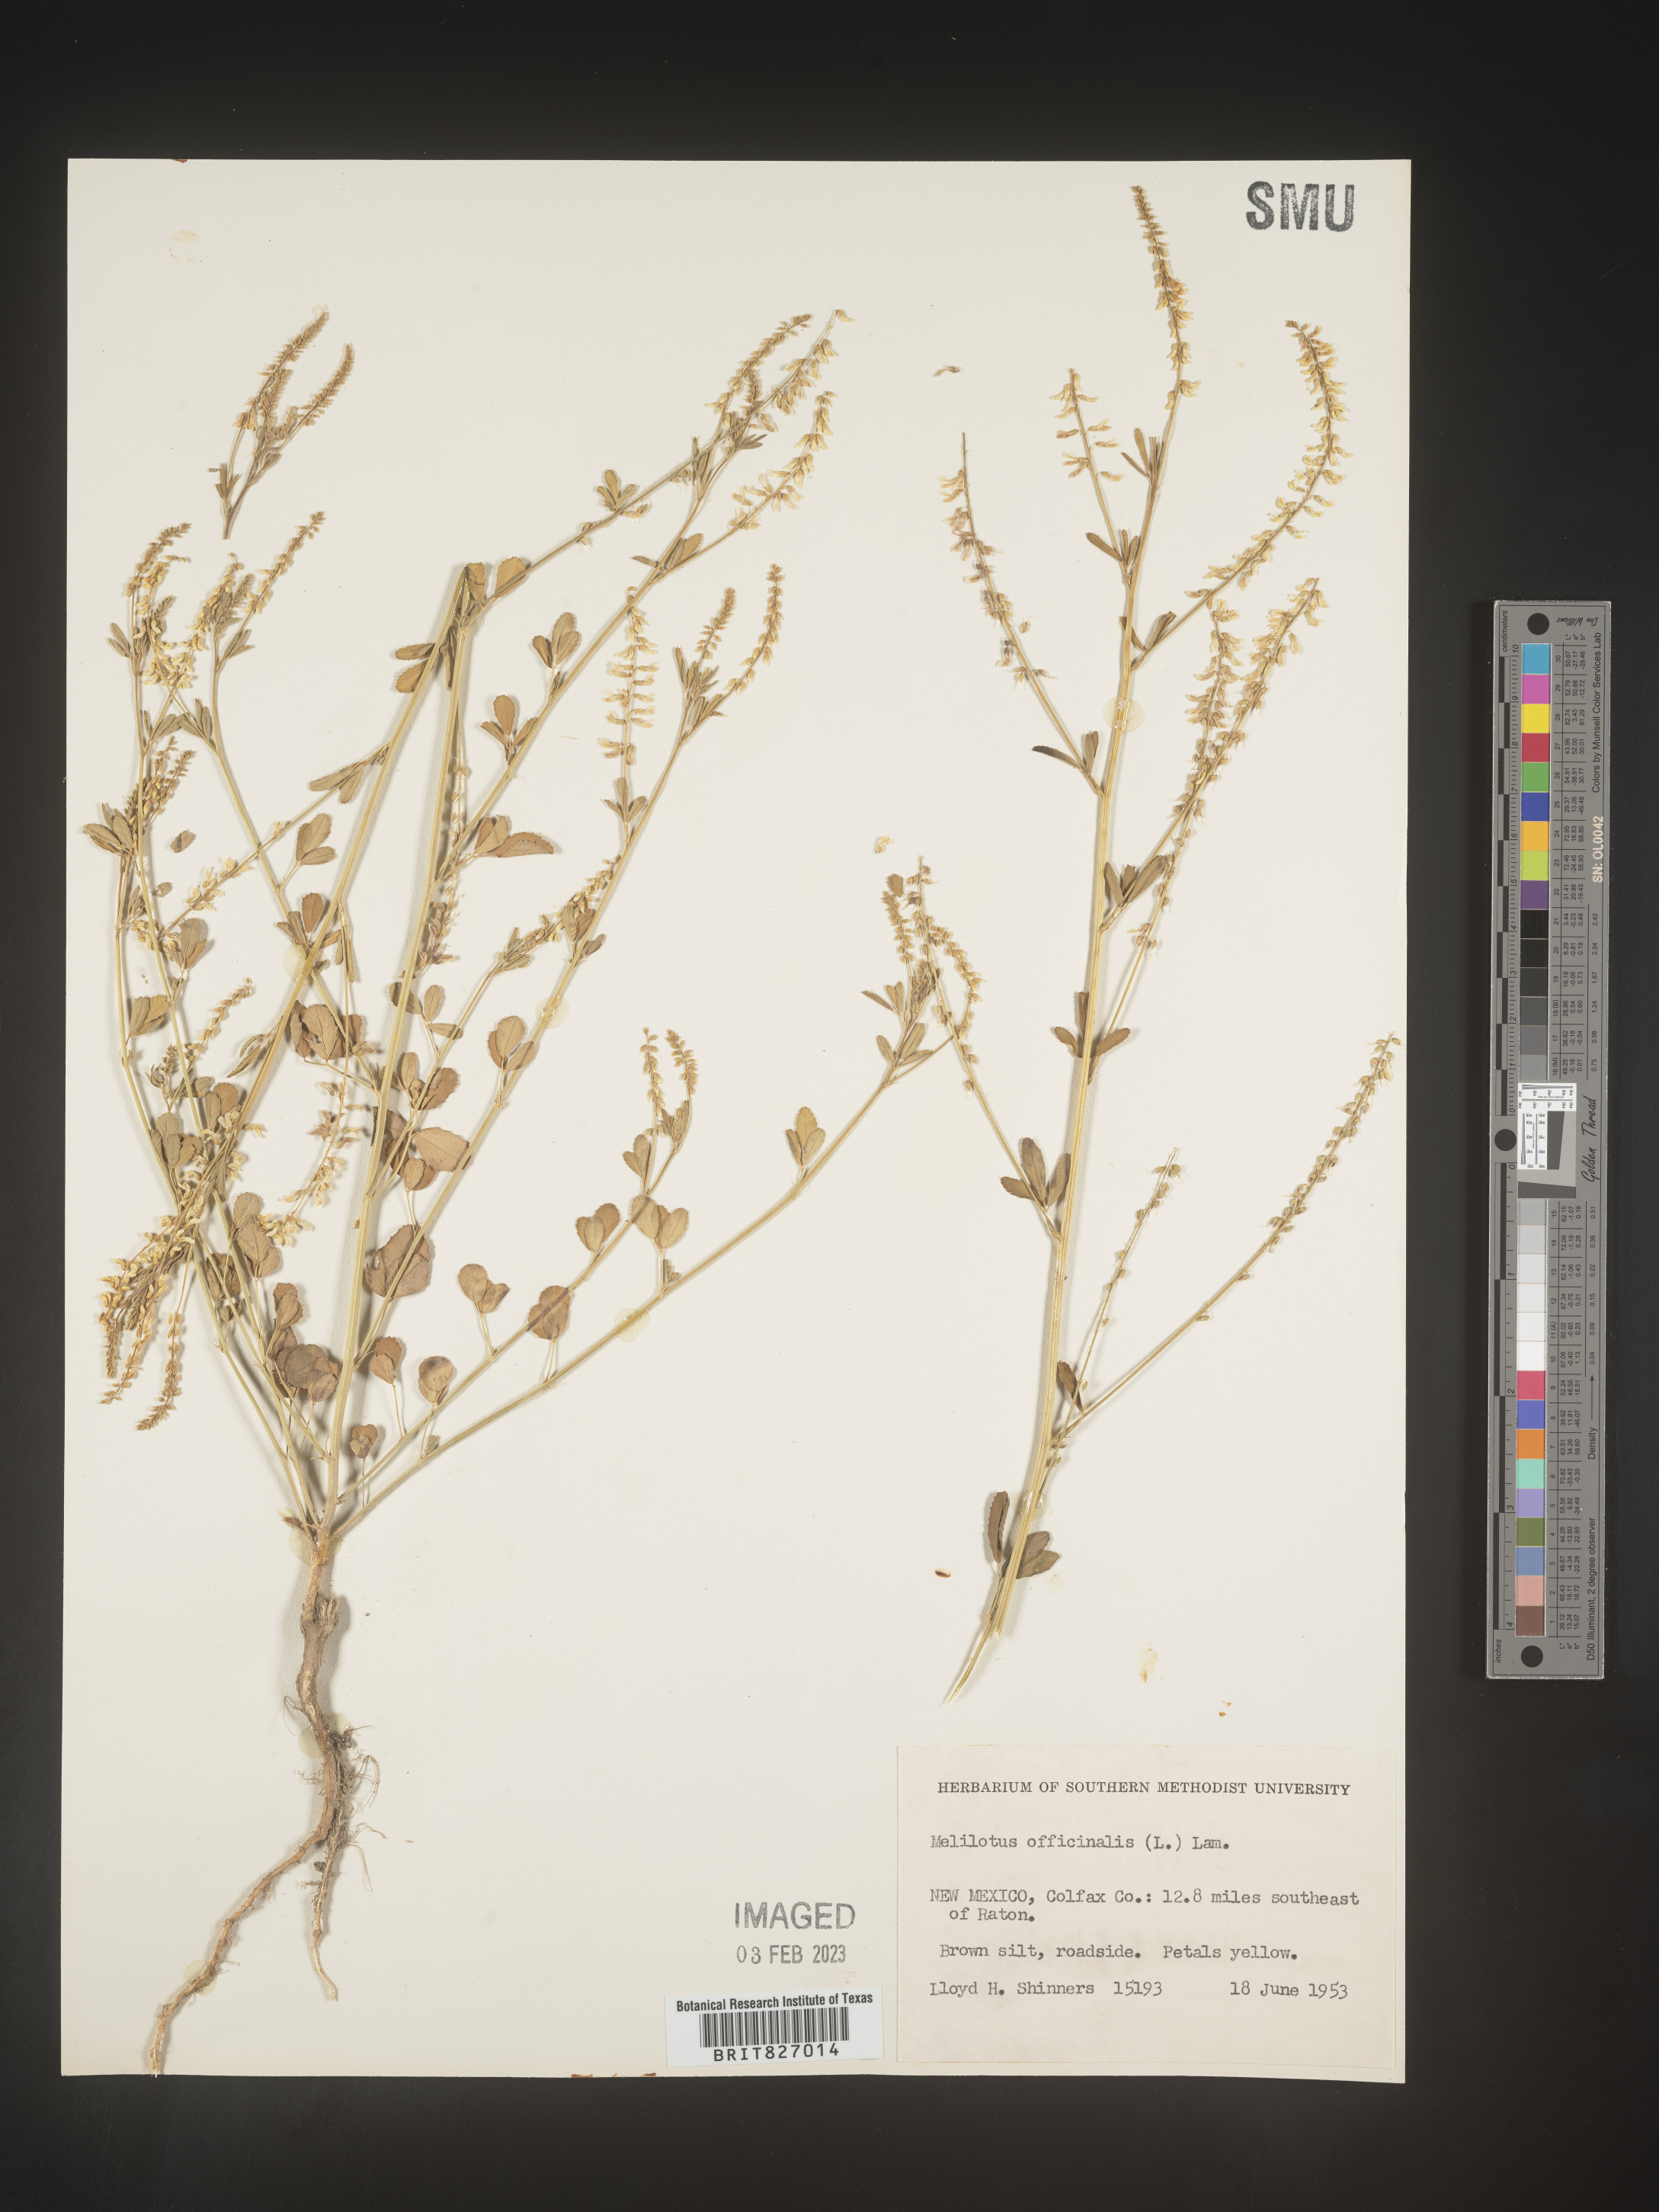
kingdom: Plantae
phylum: Tracheophyta
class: Magnoliopsida
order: Fabales
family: Fabaceae
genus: Melilotus
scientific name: Melilotus officinalis
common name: Sweetclover
